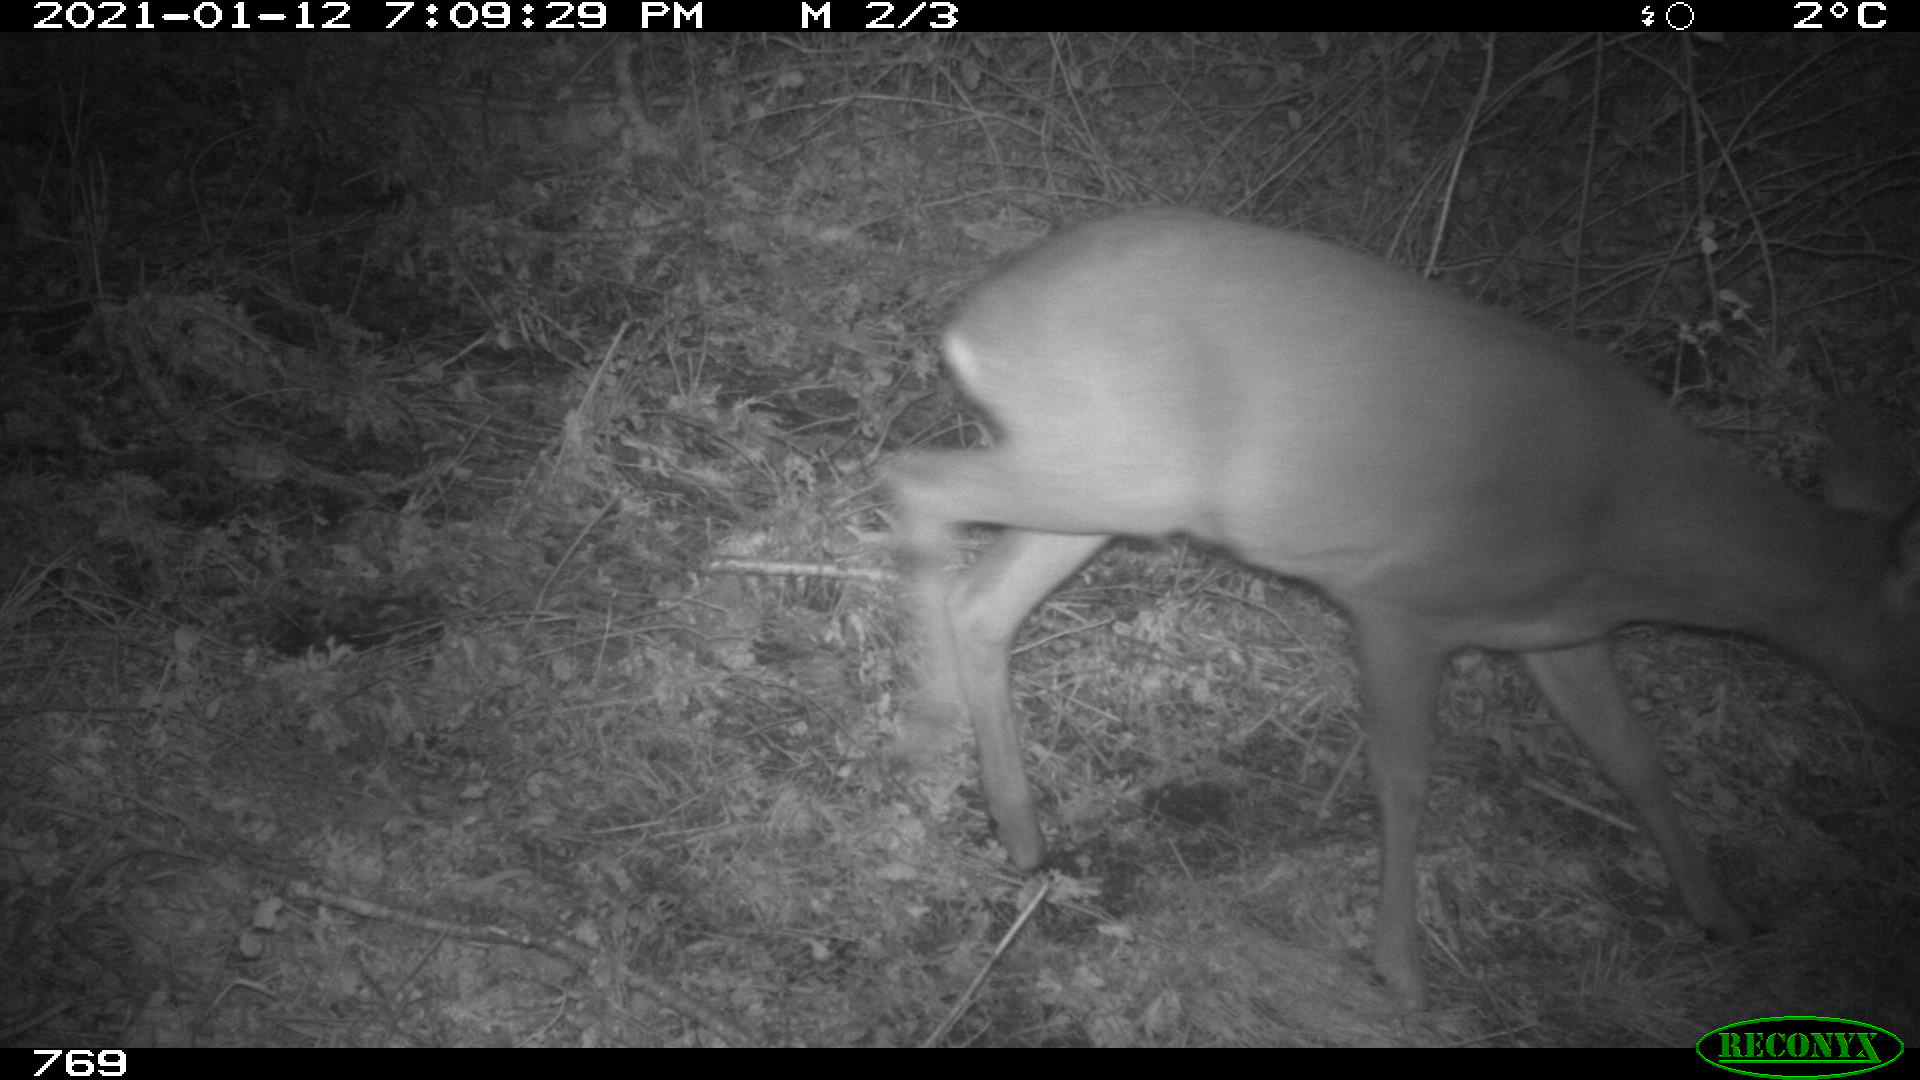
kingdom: Animalia
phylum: Chordata
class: Mammalia
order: Artiodactyla
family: Cervidae
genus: Capreolus
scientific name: Capreolus capreolus
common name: Western roe deer
